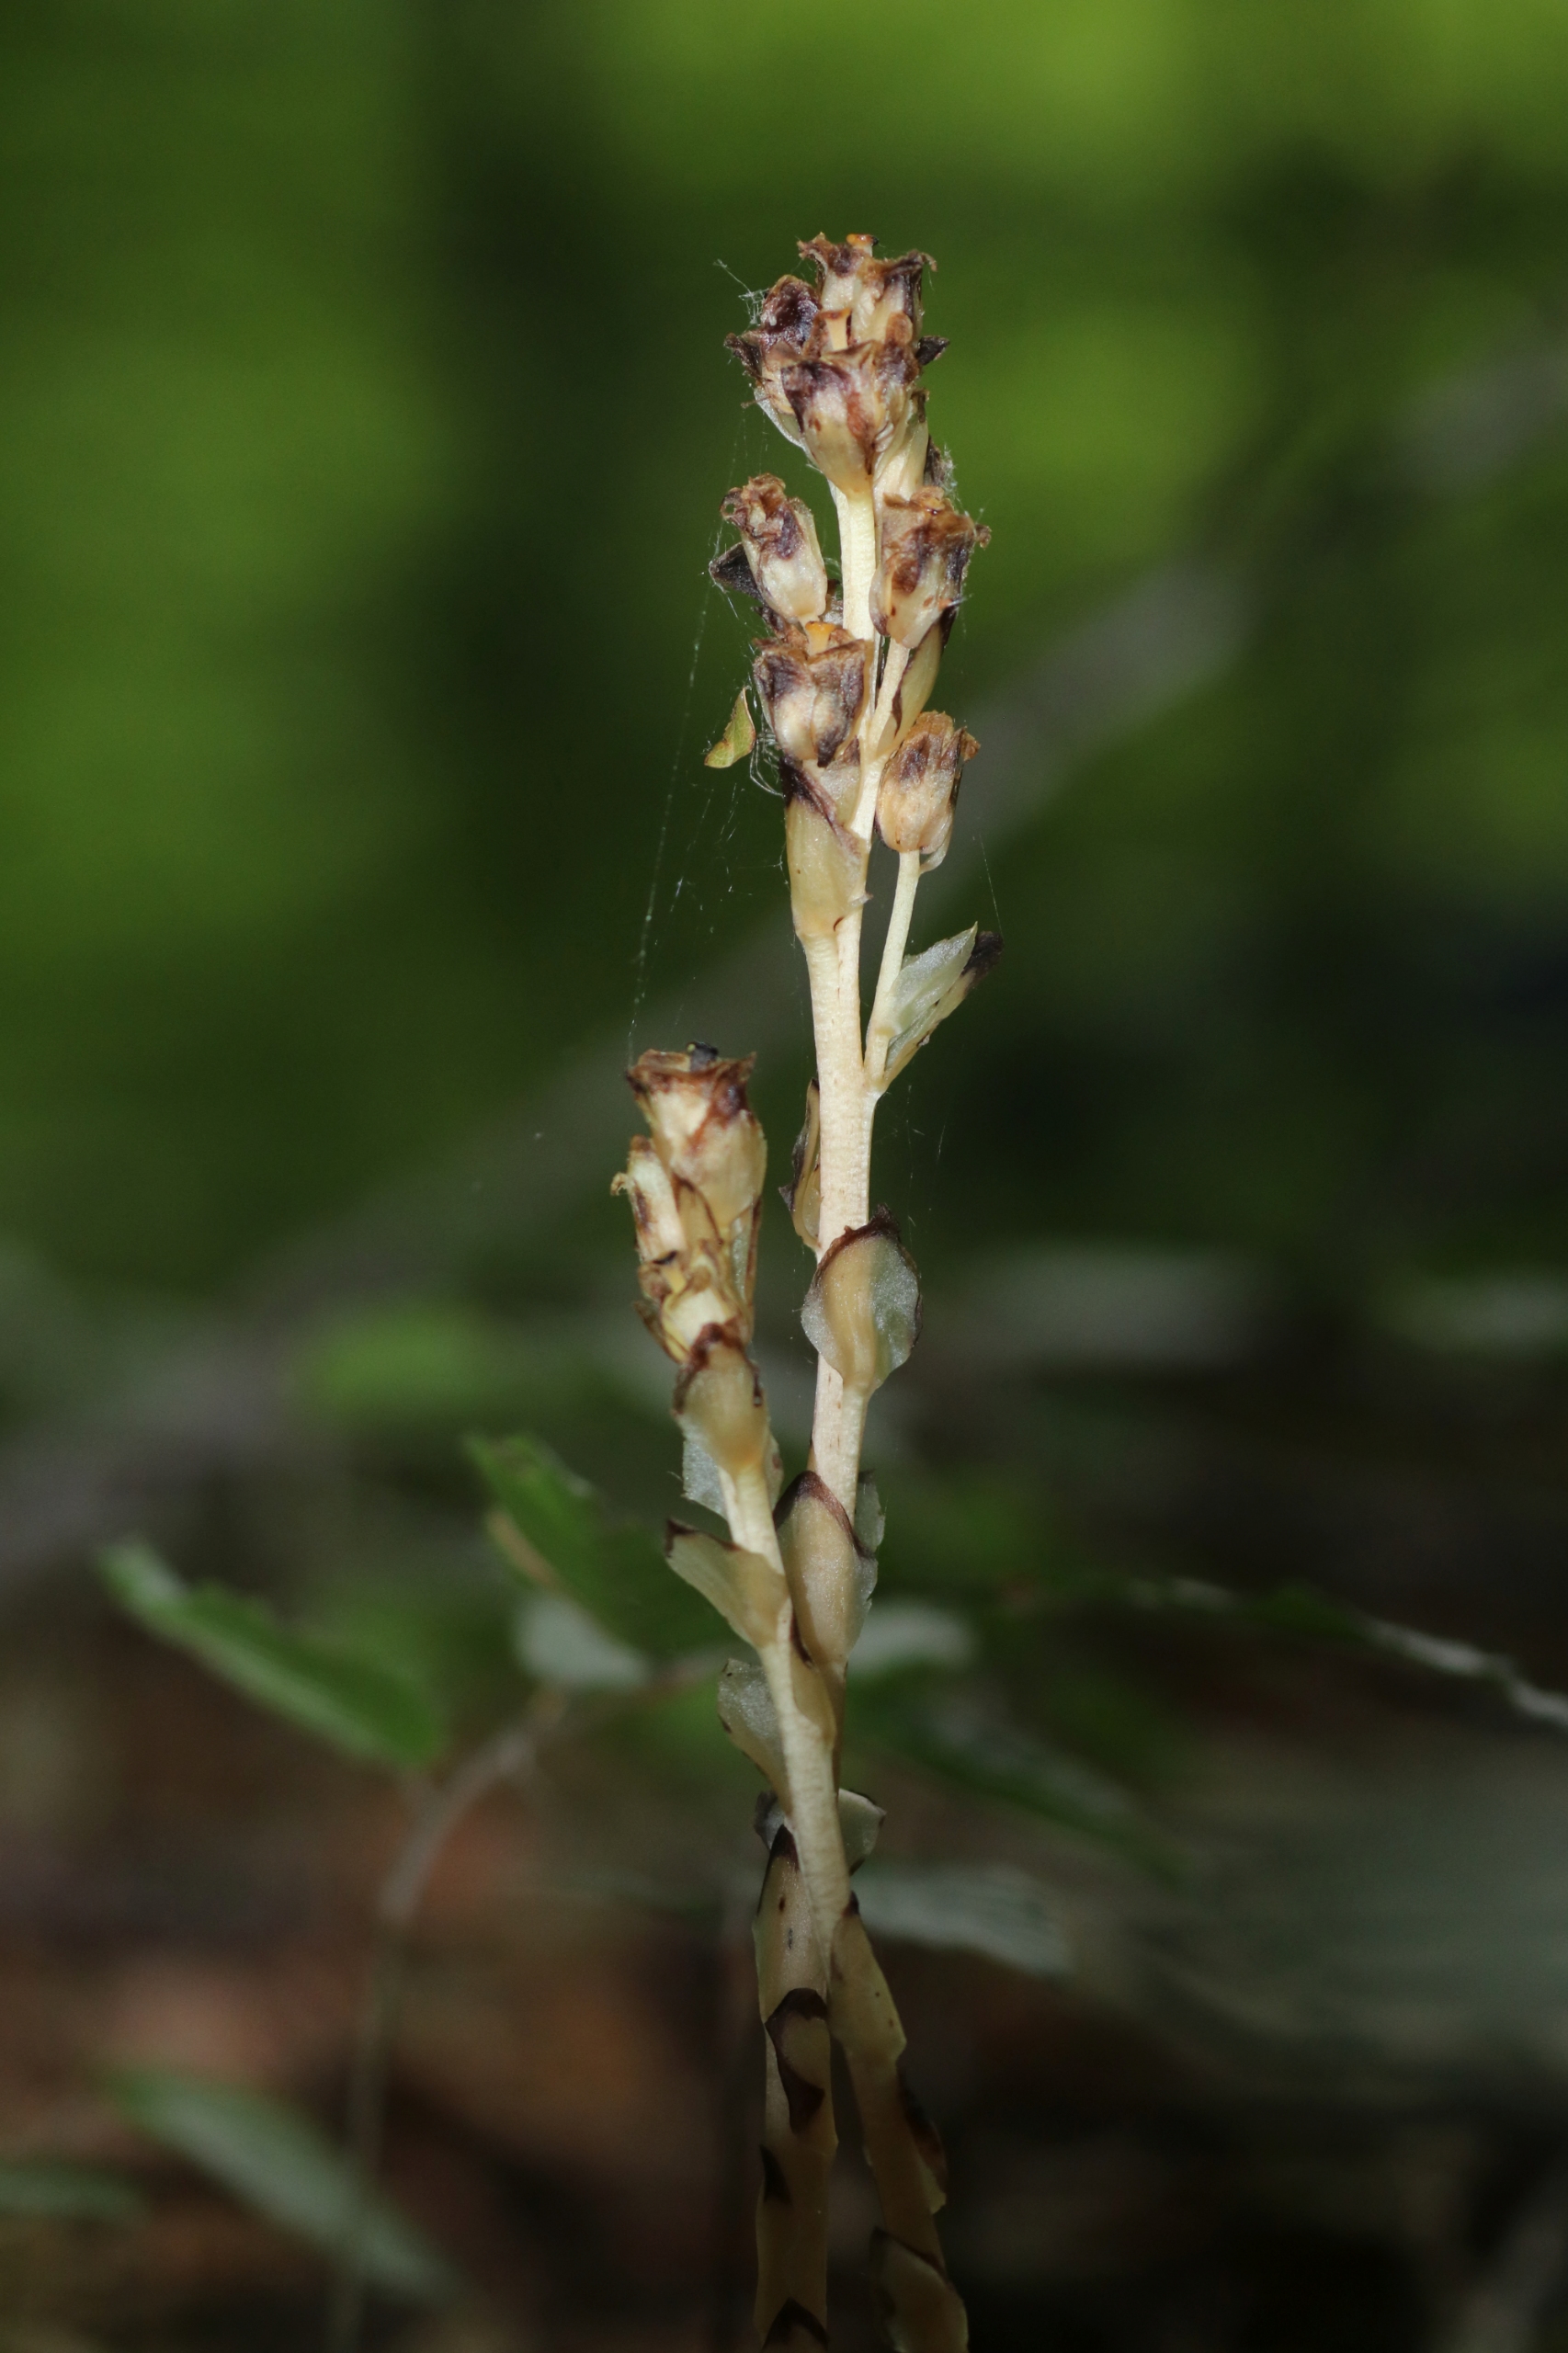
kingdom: Plantae
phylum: Tracheophyta
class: Magnoliopsida
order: Ericales
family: Ericaceae
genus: Hypopitys
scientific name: Hypopitys monotropa
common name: Snylterod
